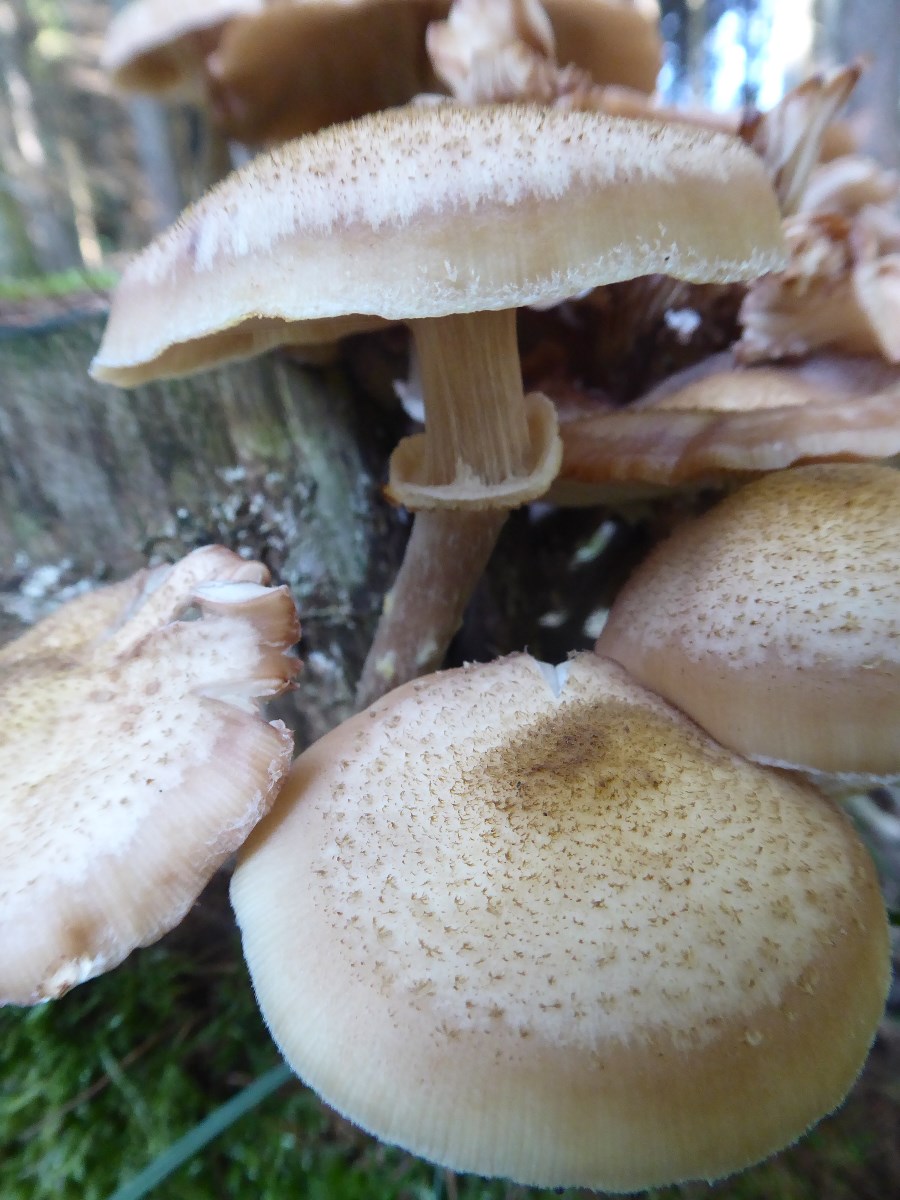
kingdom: Fungi
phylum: Basidiomycota
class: Agaricomycetes
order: Agaricales
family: Physalacriaceae
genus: Armillaria
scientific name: Armillaria ostoyae
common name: mørk honningsvamp
